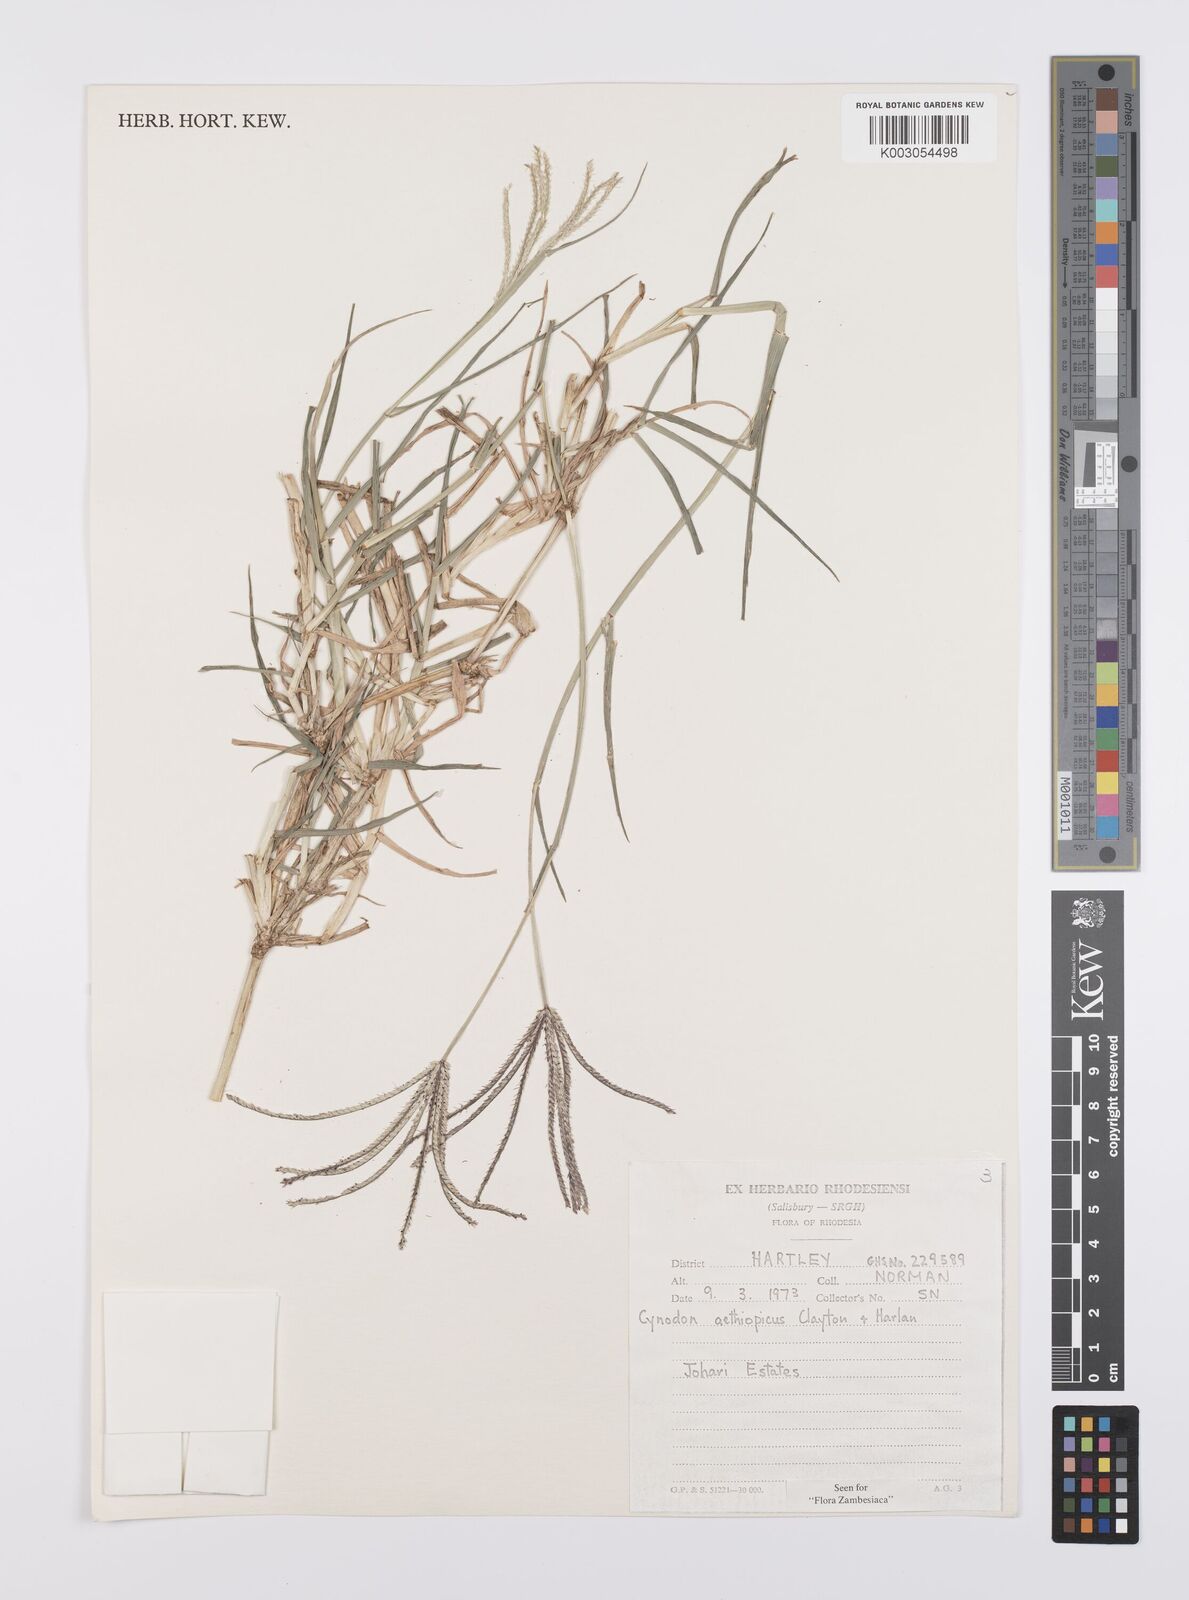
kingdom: Plantae
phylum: Tracheophyta
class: Liliopsida
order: Poales
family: Poaceae
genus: Cynodon
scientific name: Cynodon aethiopicus
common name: Ethiopian dogstooth grass
